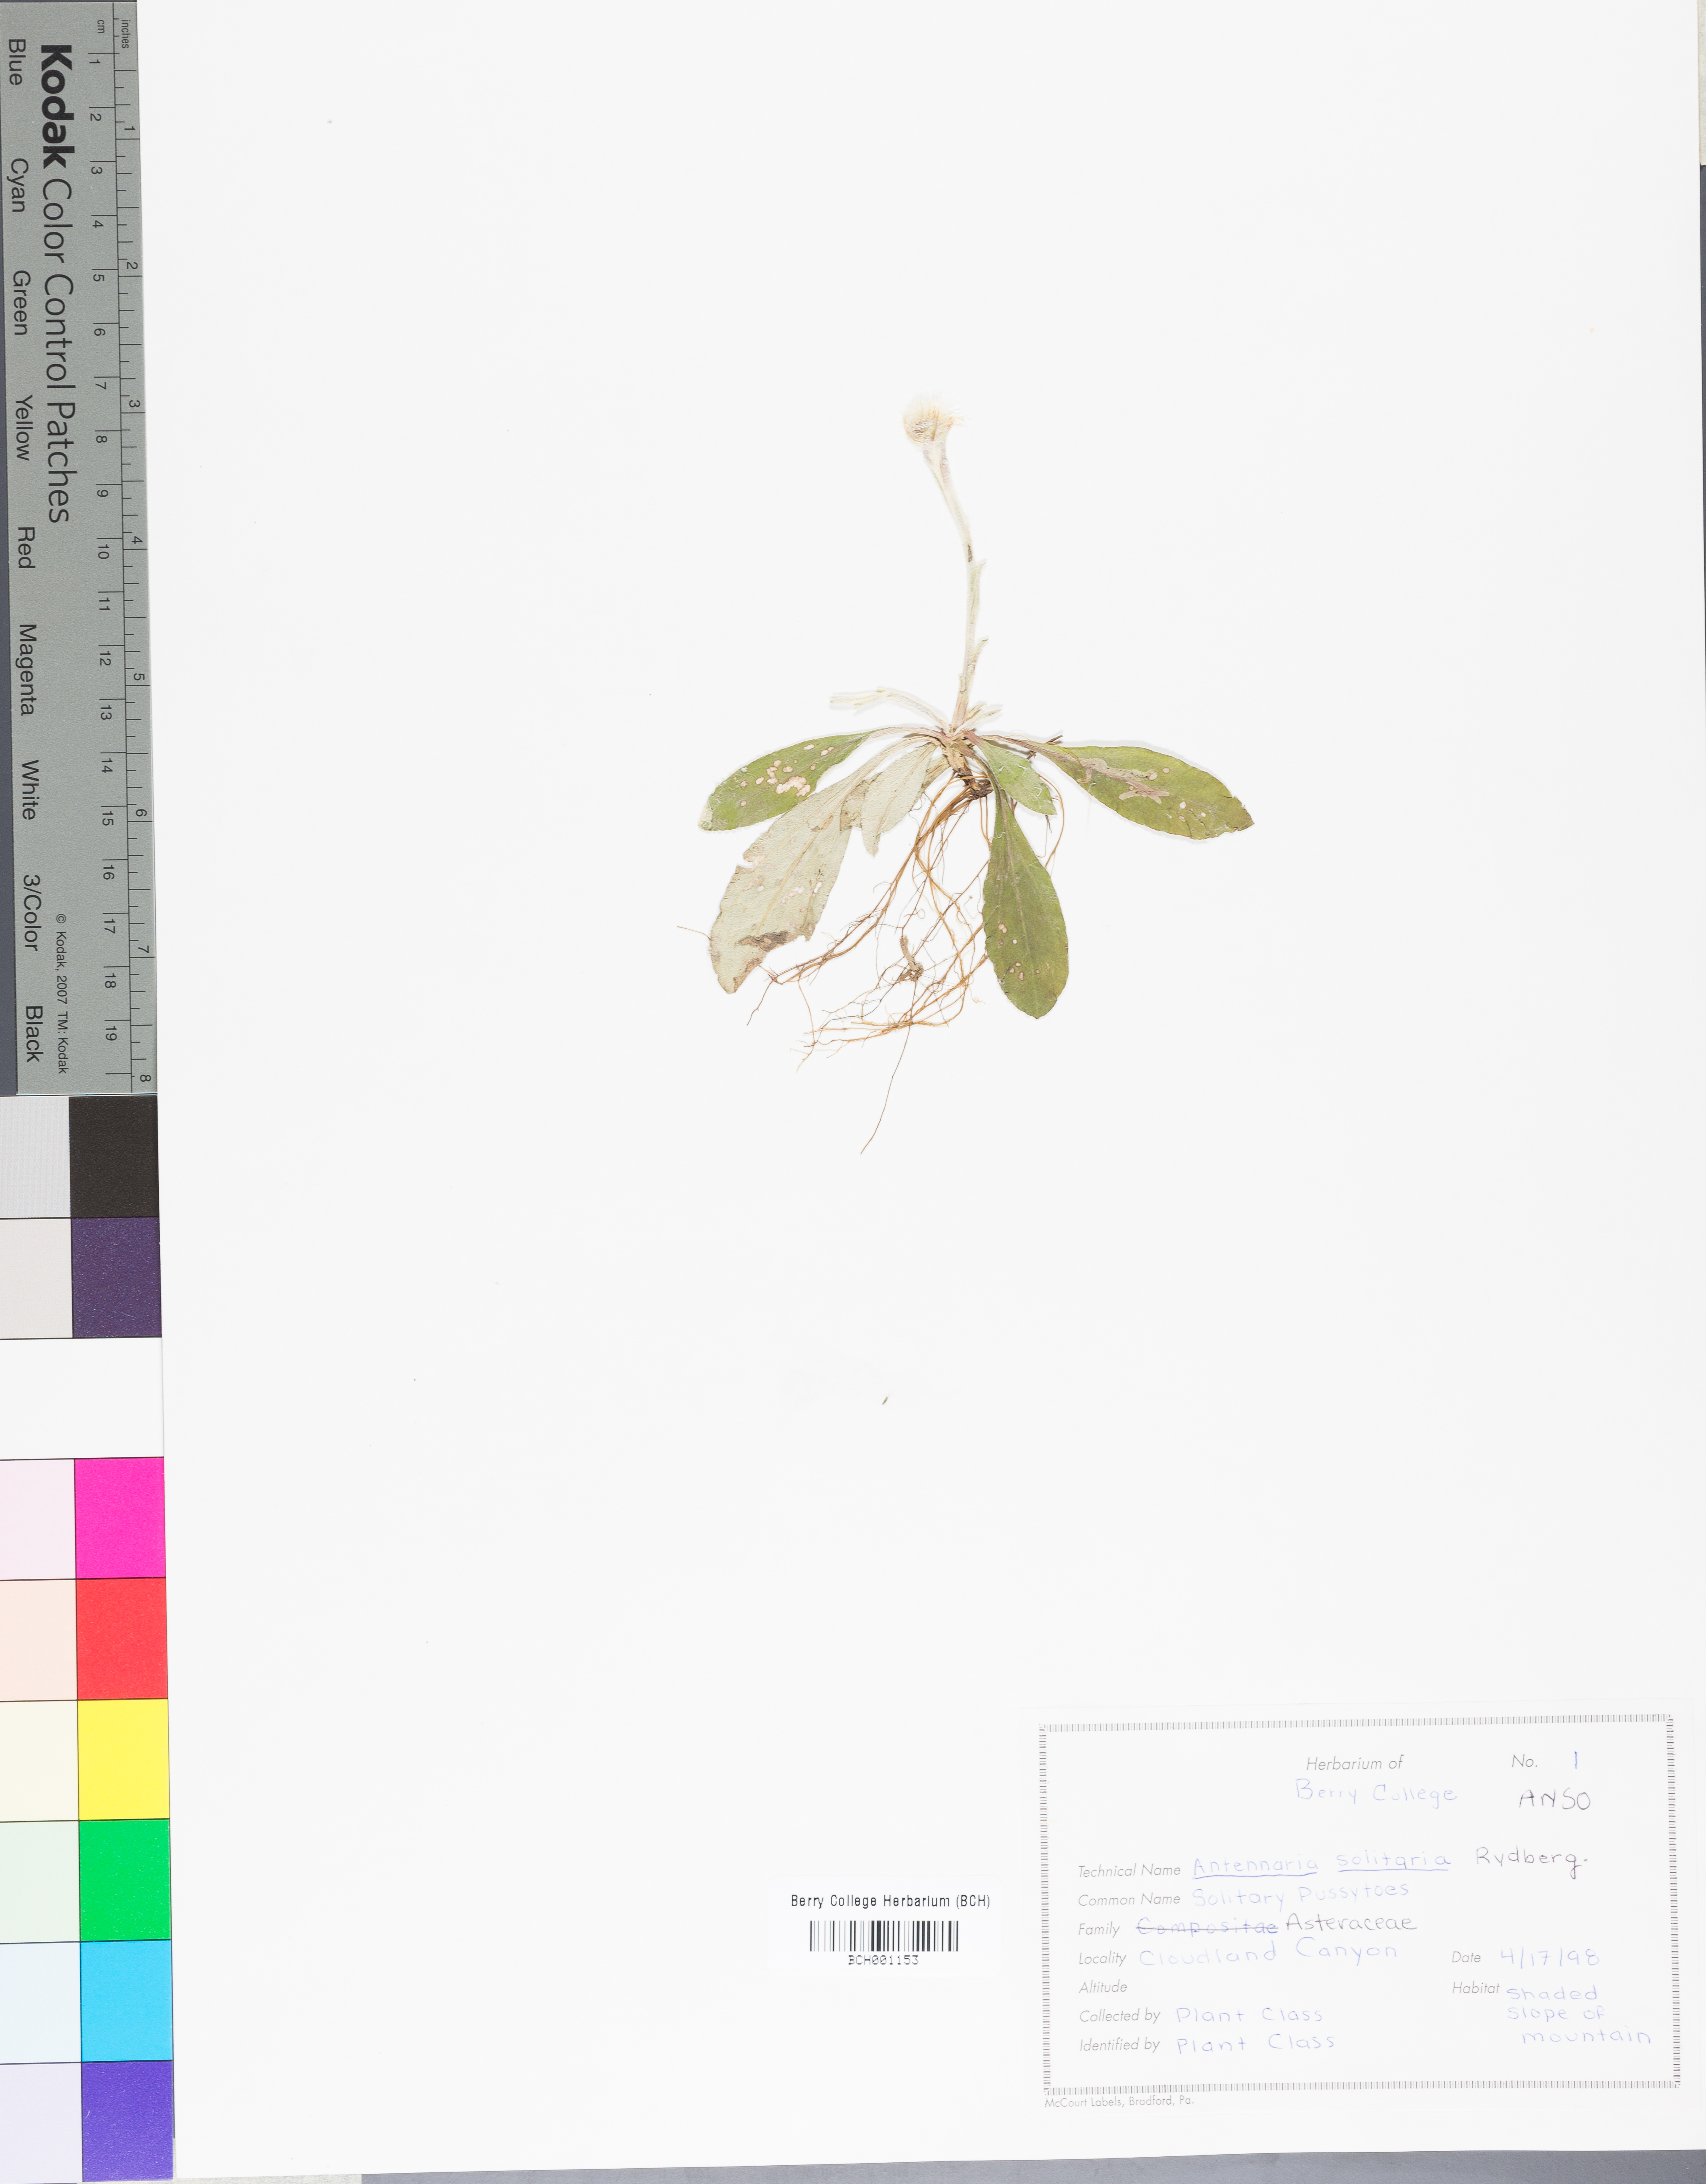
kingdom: Plantae
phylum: Tracheophyta
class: Magnoliopsida
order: Asterales
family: Asteraceae
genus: Antennaria
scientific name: Antennaria solitaria
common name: Single-head pussytoes
